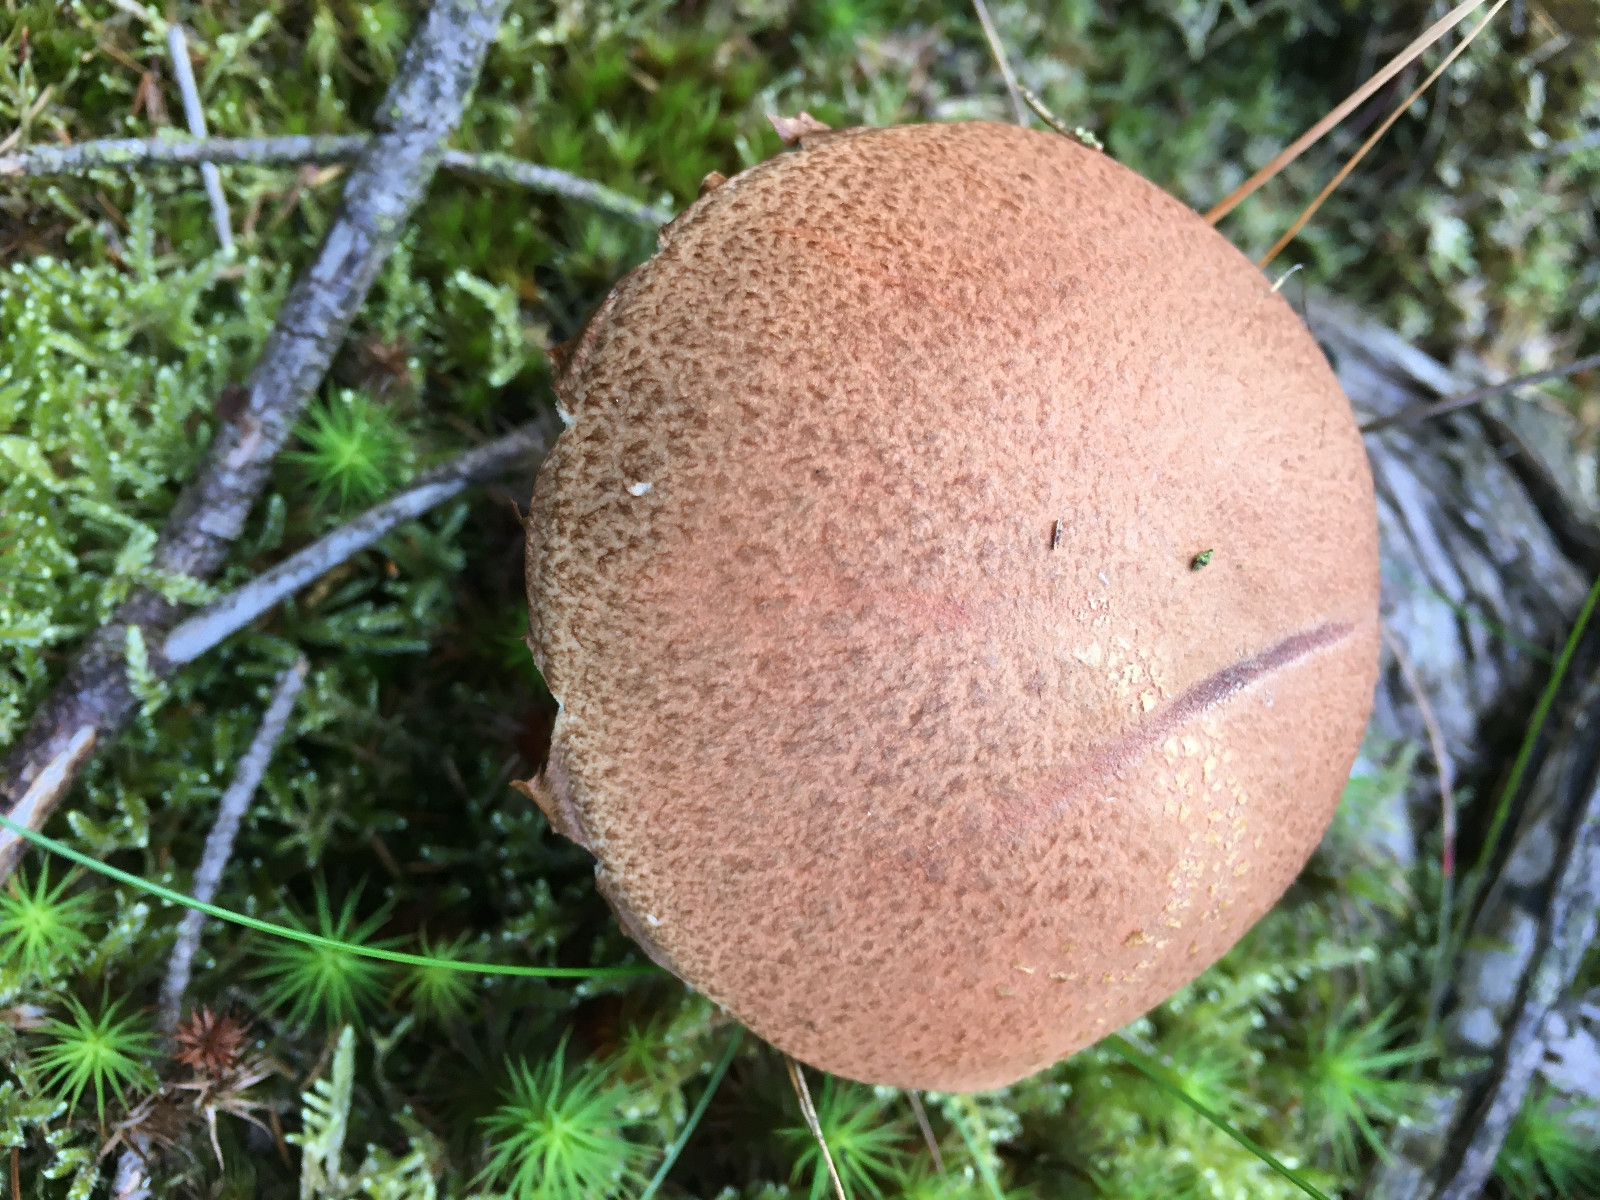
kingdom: Fungi
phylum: Basidiomycota
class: Agaricomycetes
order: Boletales
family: Boletaceae
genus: Leccinum
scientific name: Leccinum vulpinum
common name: fyrre-skælrørhat
